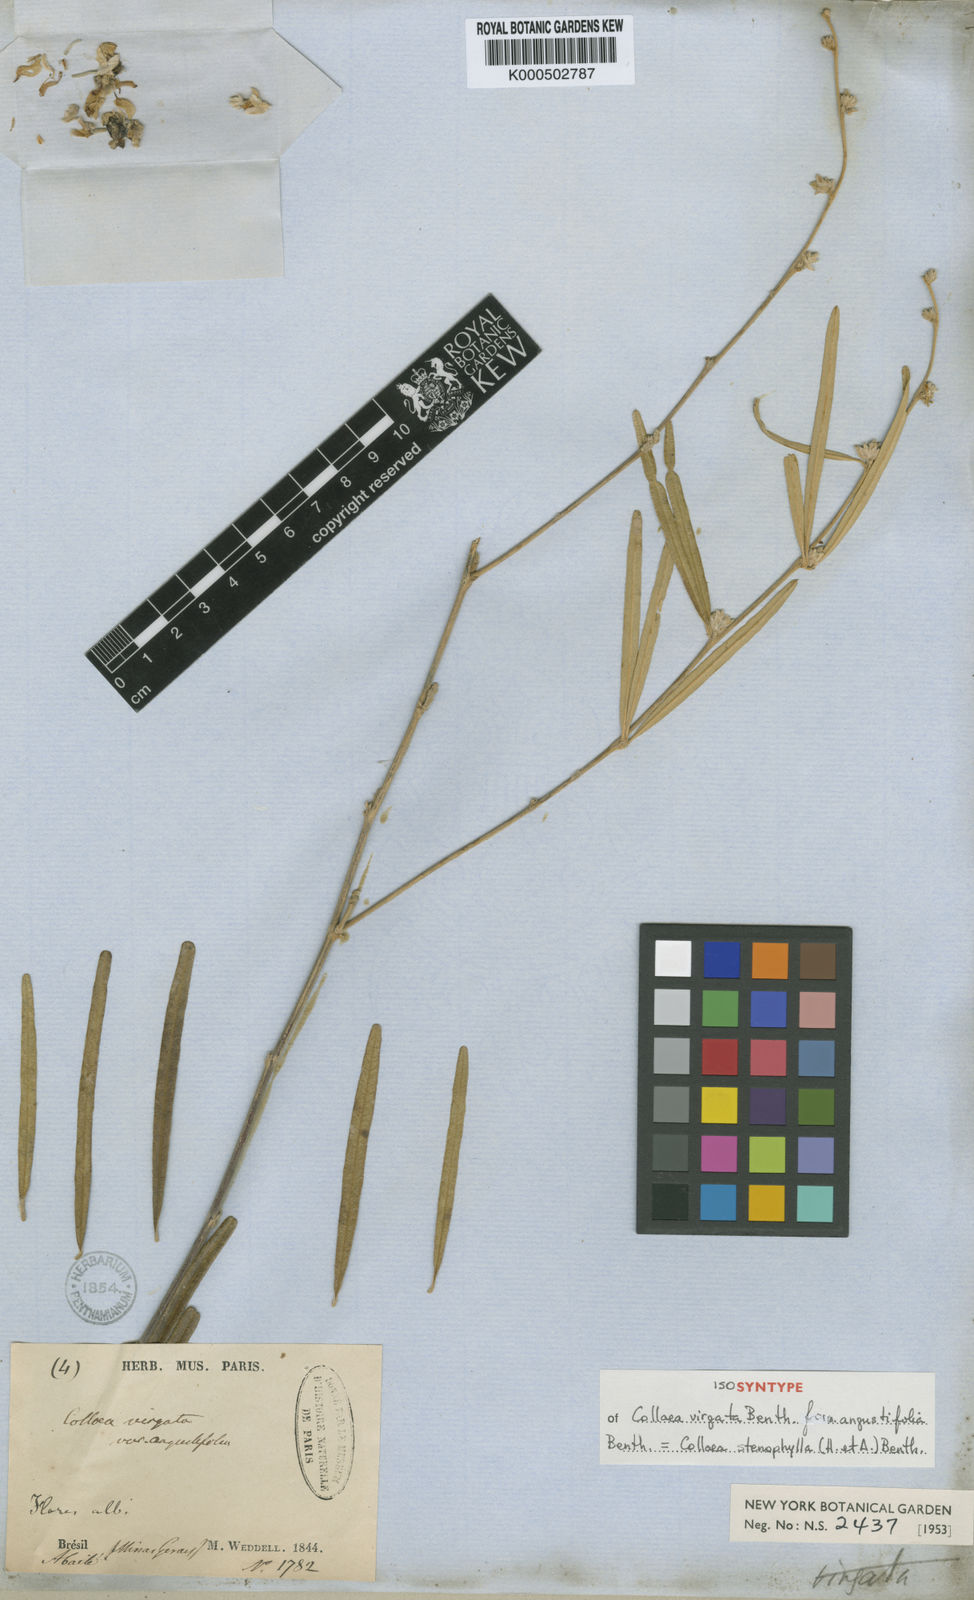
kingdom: Plantae
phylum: Tracheophyta
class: Magnoliopsida
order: Fabales
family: Fabaceae
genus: Collaea
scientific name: Collaea stenophylla
